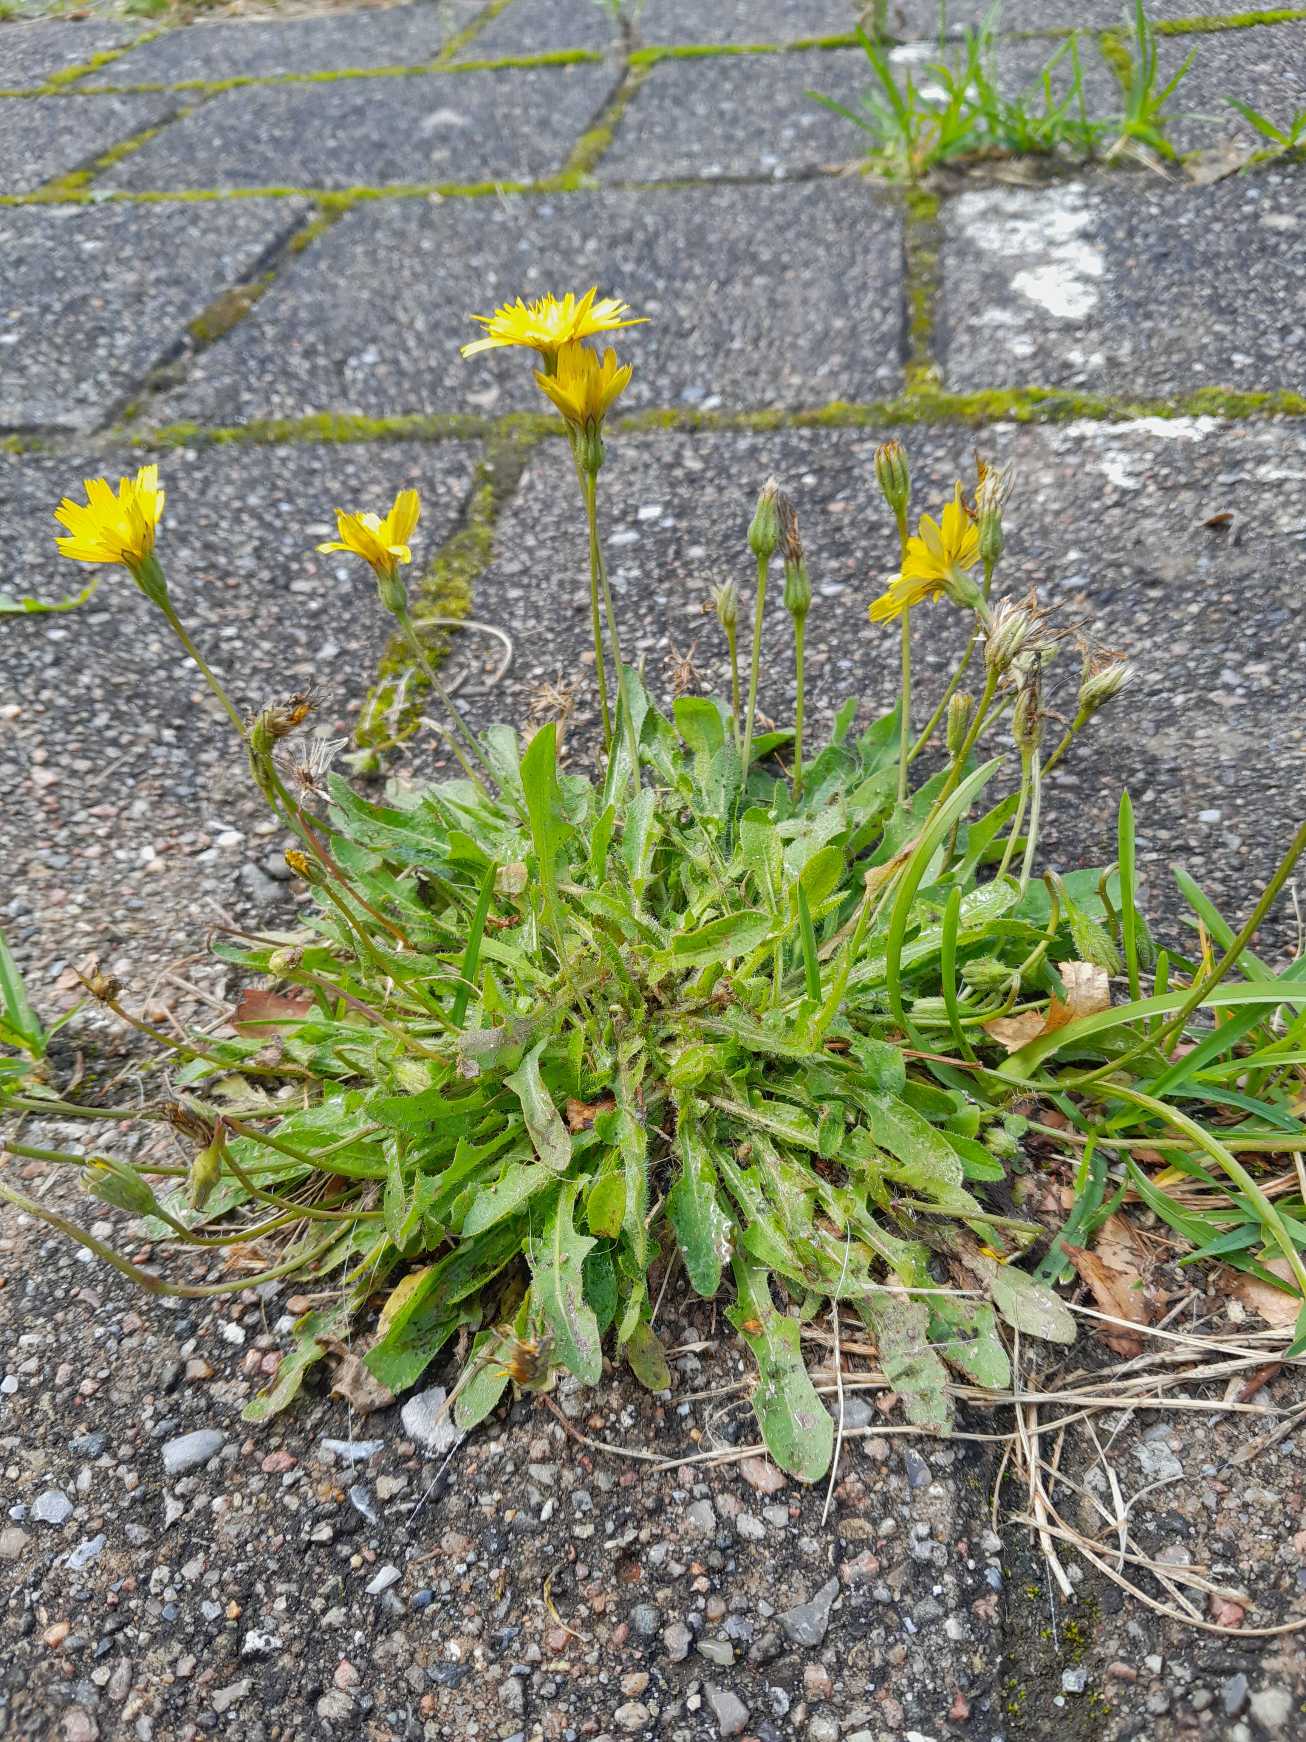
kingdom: Plantae
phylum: Tracheophyta
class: Magnoliopsida
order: Asterales
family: Asteraceae
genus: Thrincia
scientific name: Thrincia saxatilis
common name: Hundesalat
